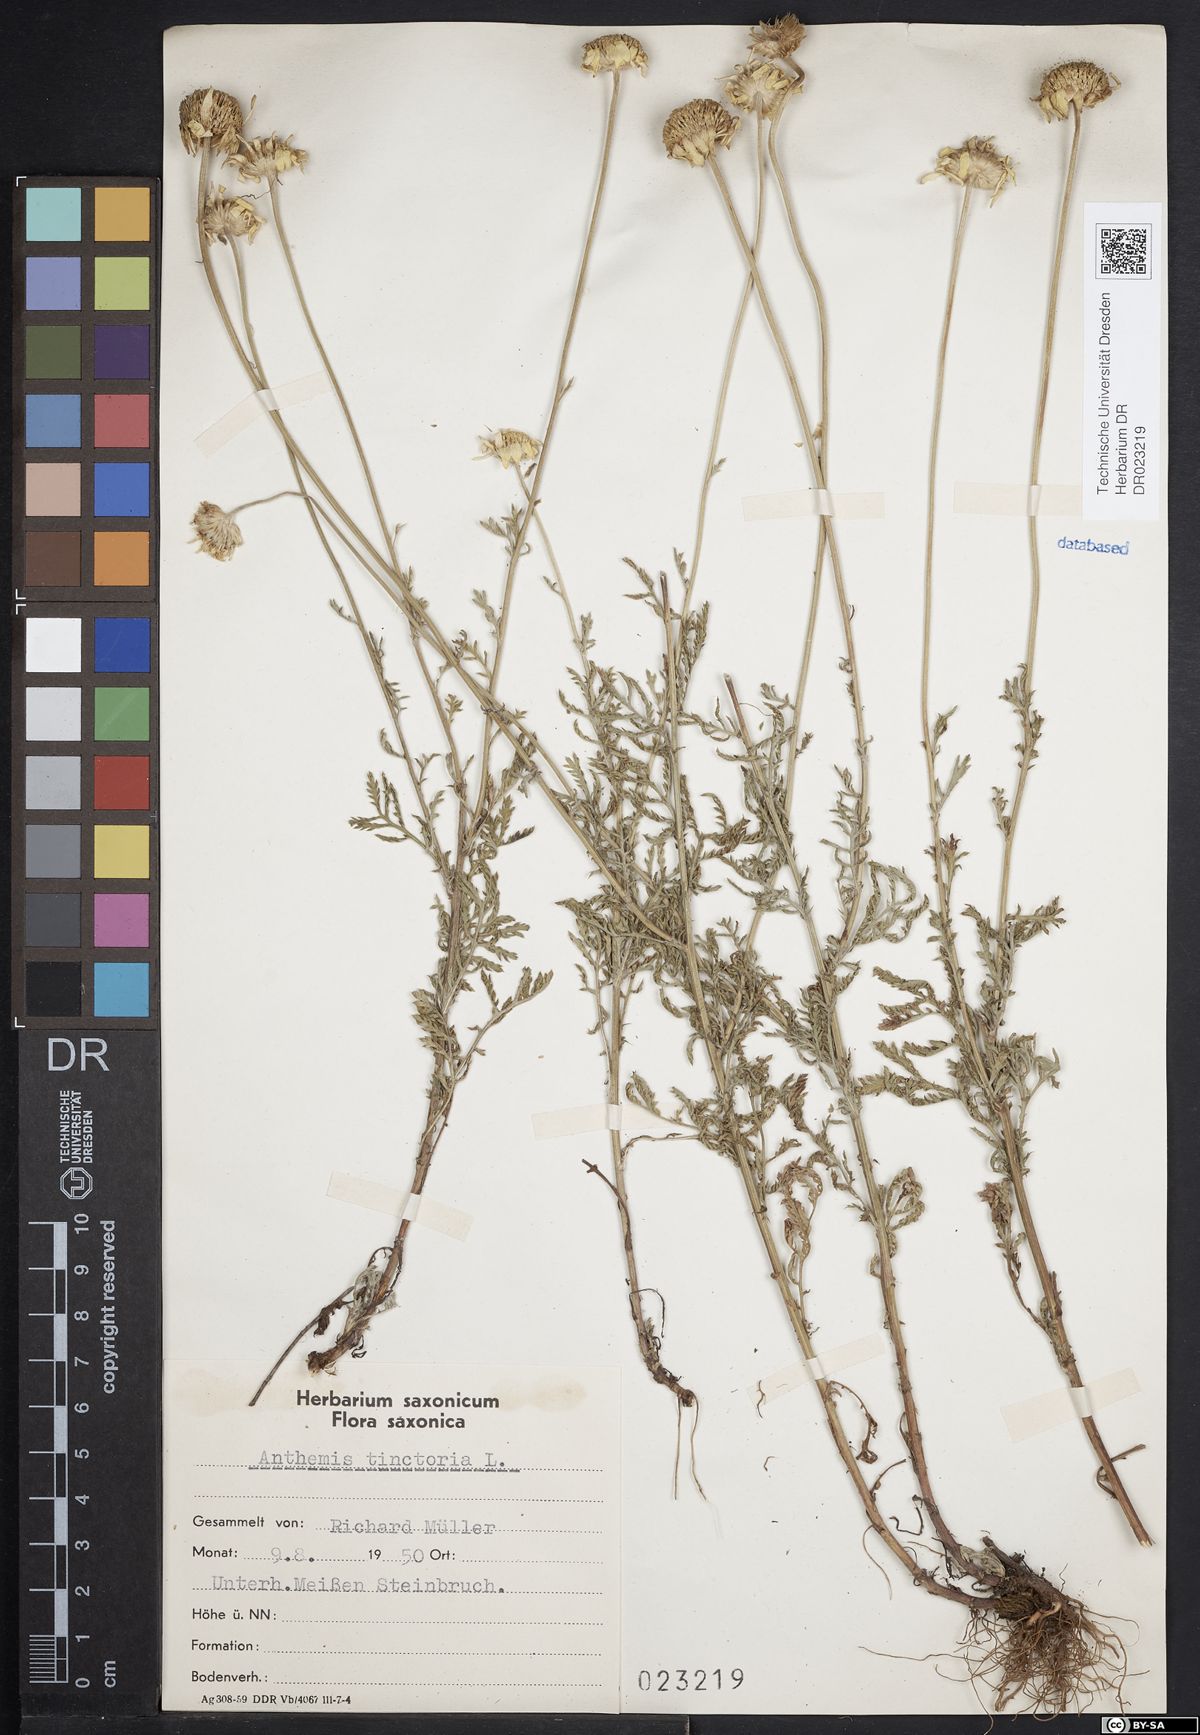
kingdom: Plantae
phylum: Tracheophyta
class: Magnoliopsida
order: Asterales
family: Asteraceae
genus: Cota
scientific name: Cota tinctoria
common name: Golden chamomile
